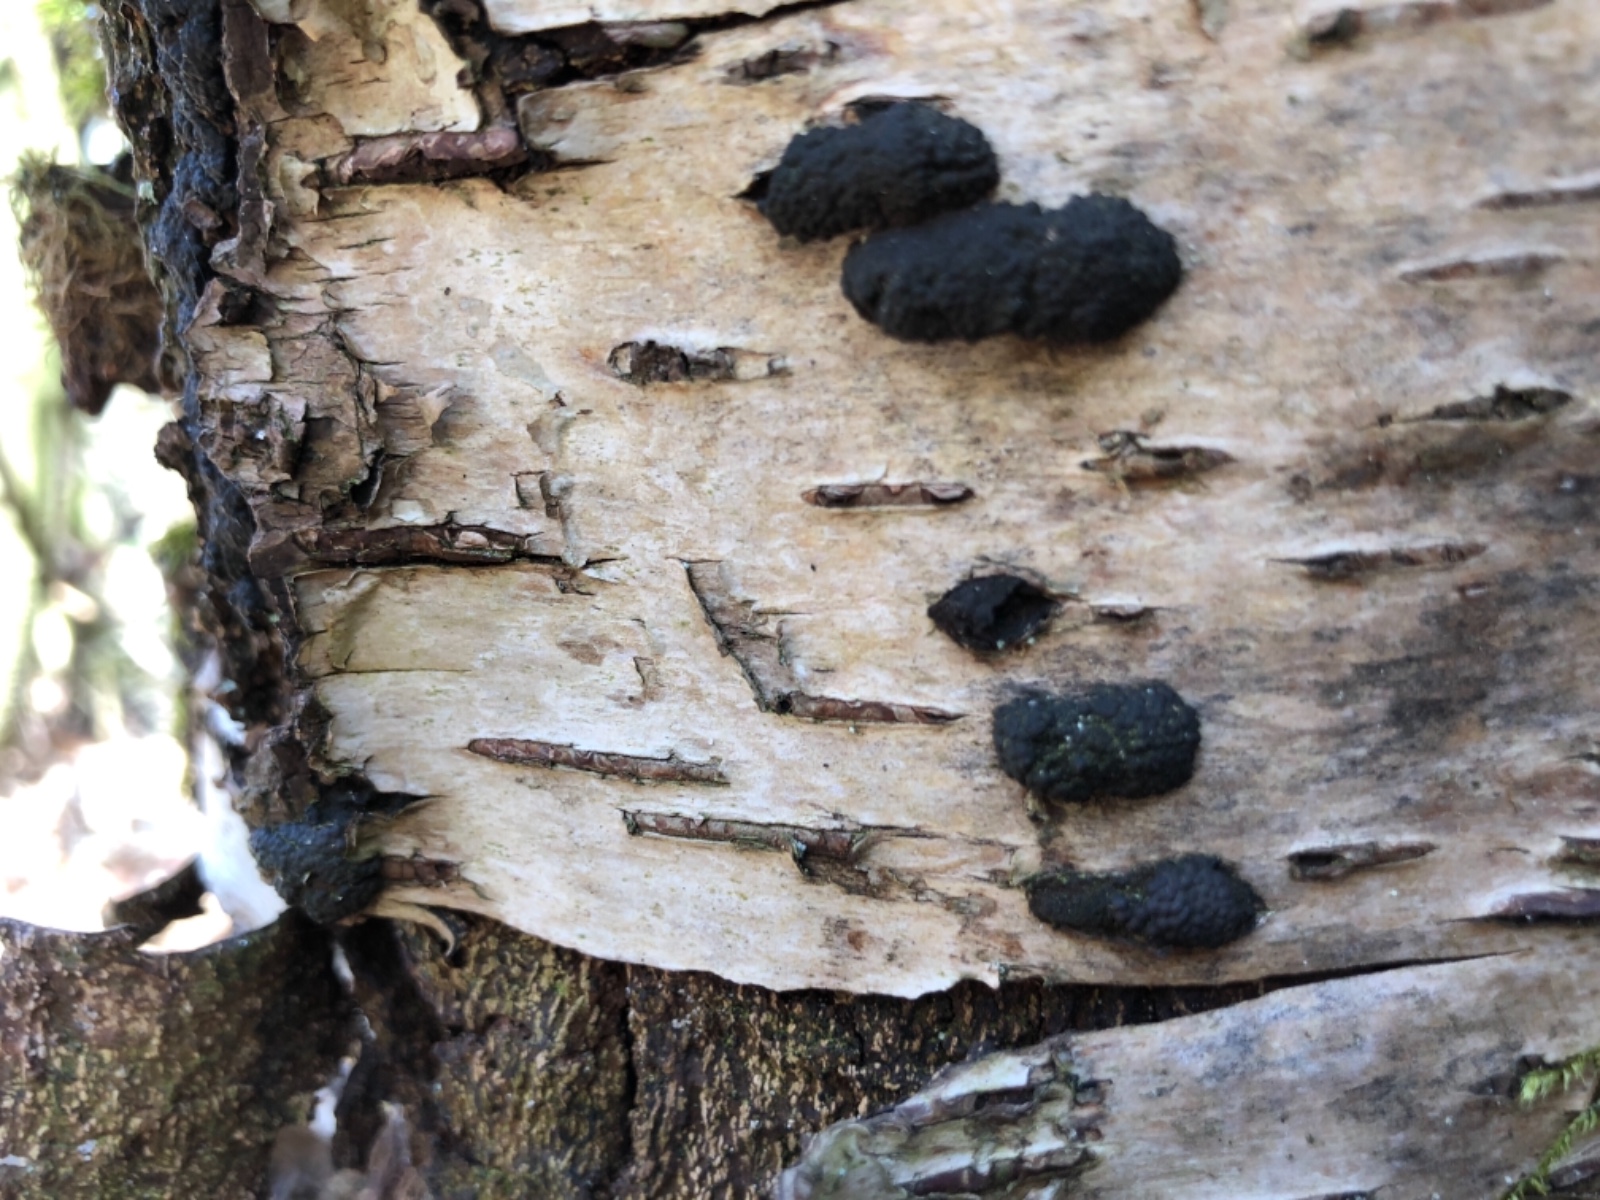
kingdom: Fungi
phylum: Ascomycota
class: Sordariomycetes
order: Xylariales
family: Hypoxylaceae
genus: Jackrogersella
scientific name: Jackrogersella multiformis
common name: foranderlig kulbær
